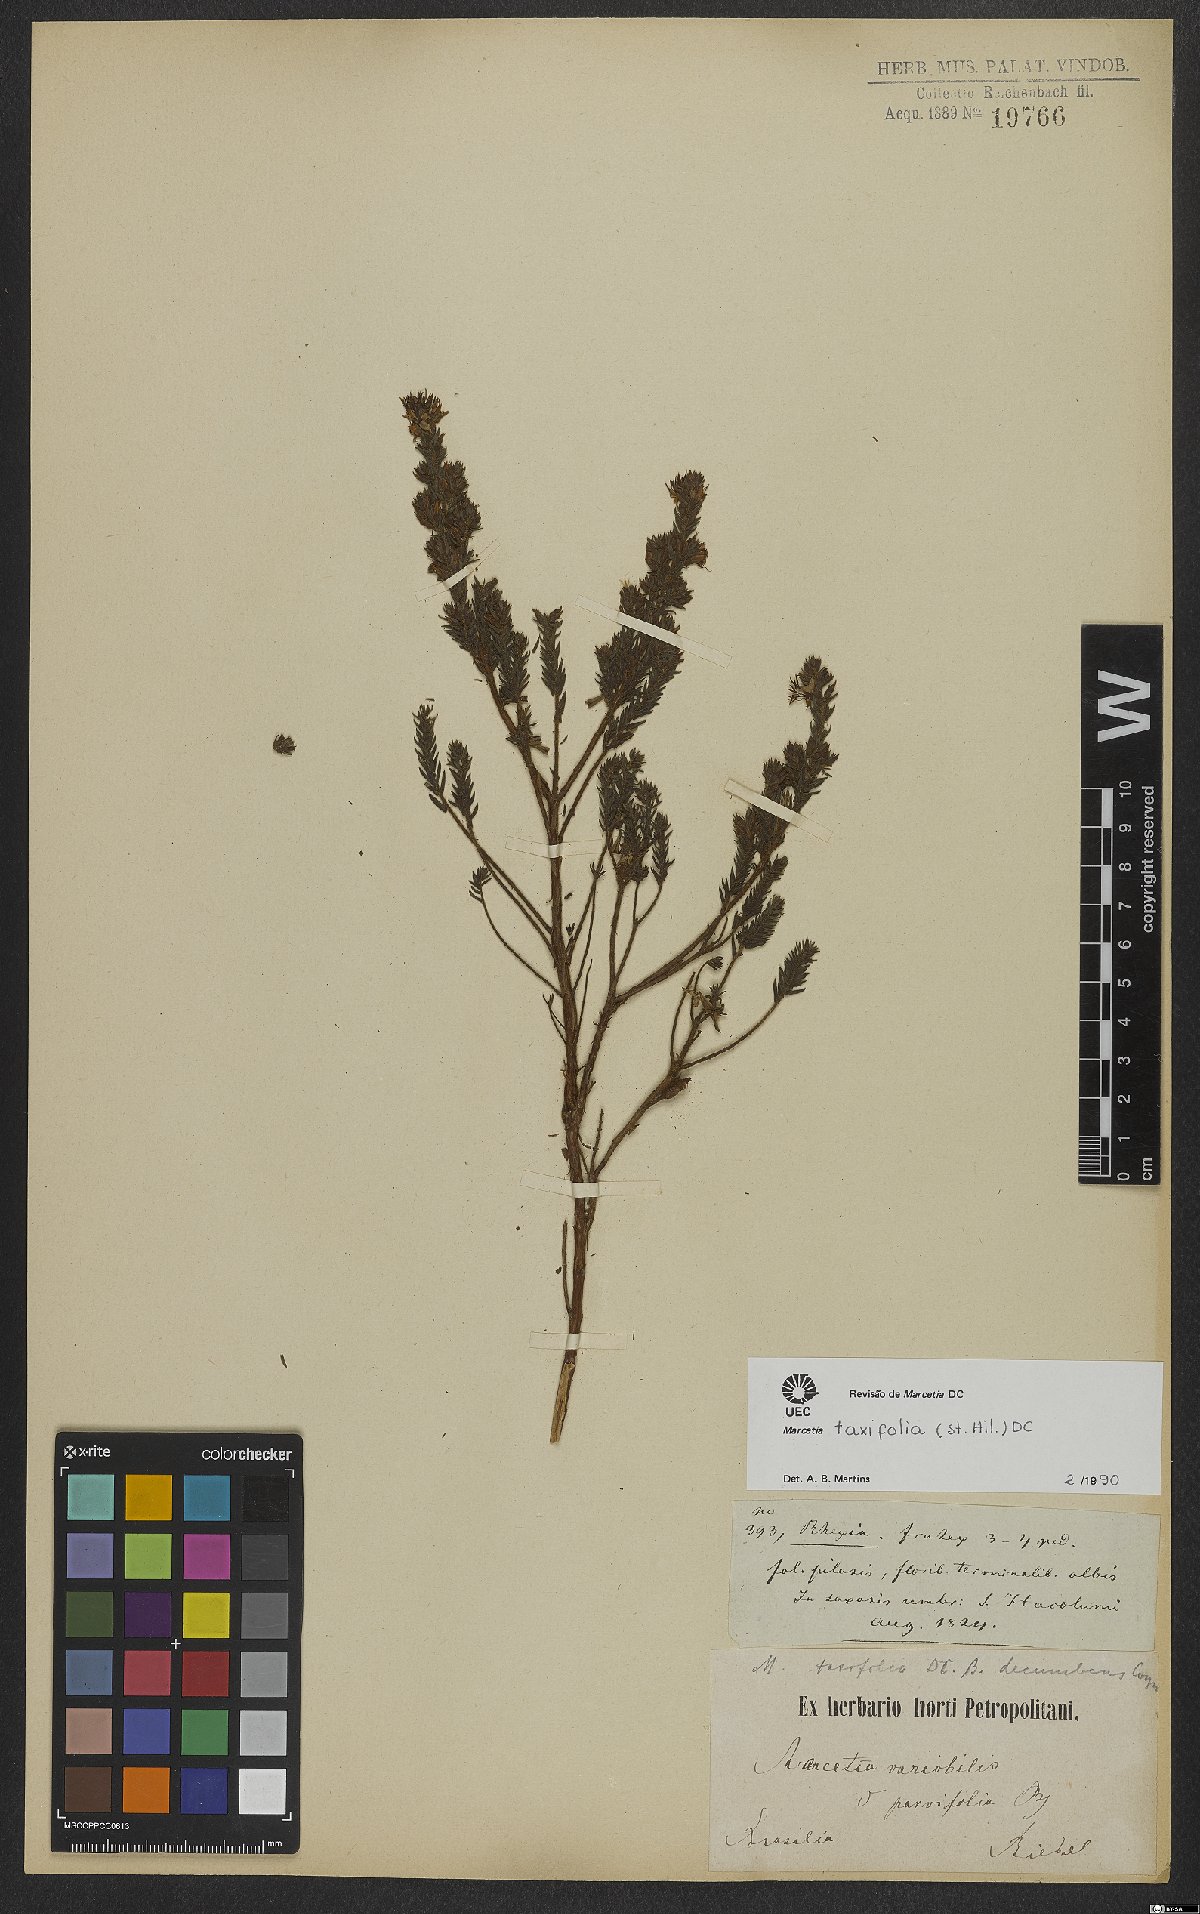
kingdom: Plantae
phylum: Tracheophyta
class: Magnoliopsida
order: Myrtales
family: Melastomataceae
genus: Marcetia
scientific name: Marcetia taxifolia
